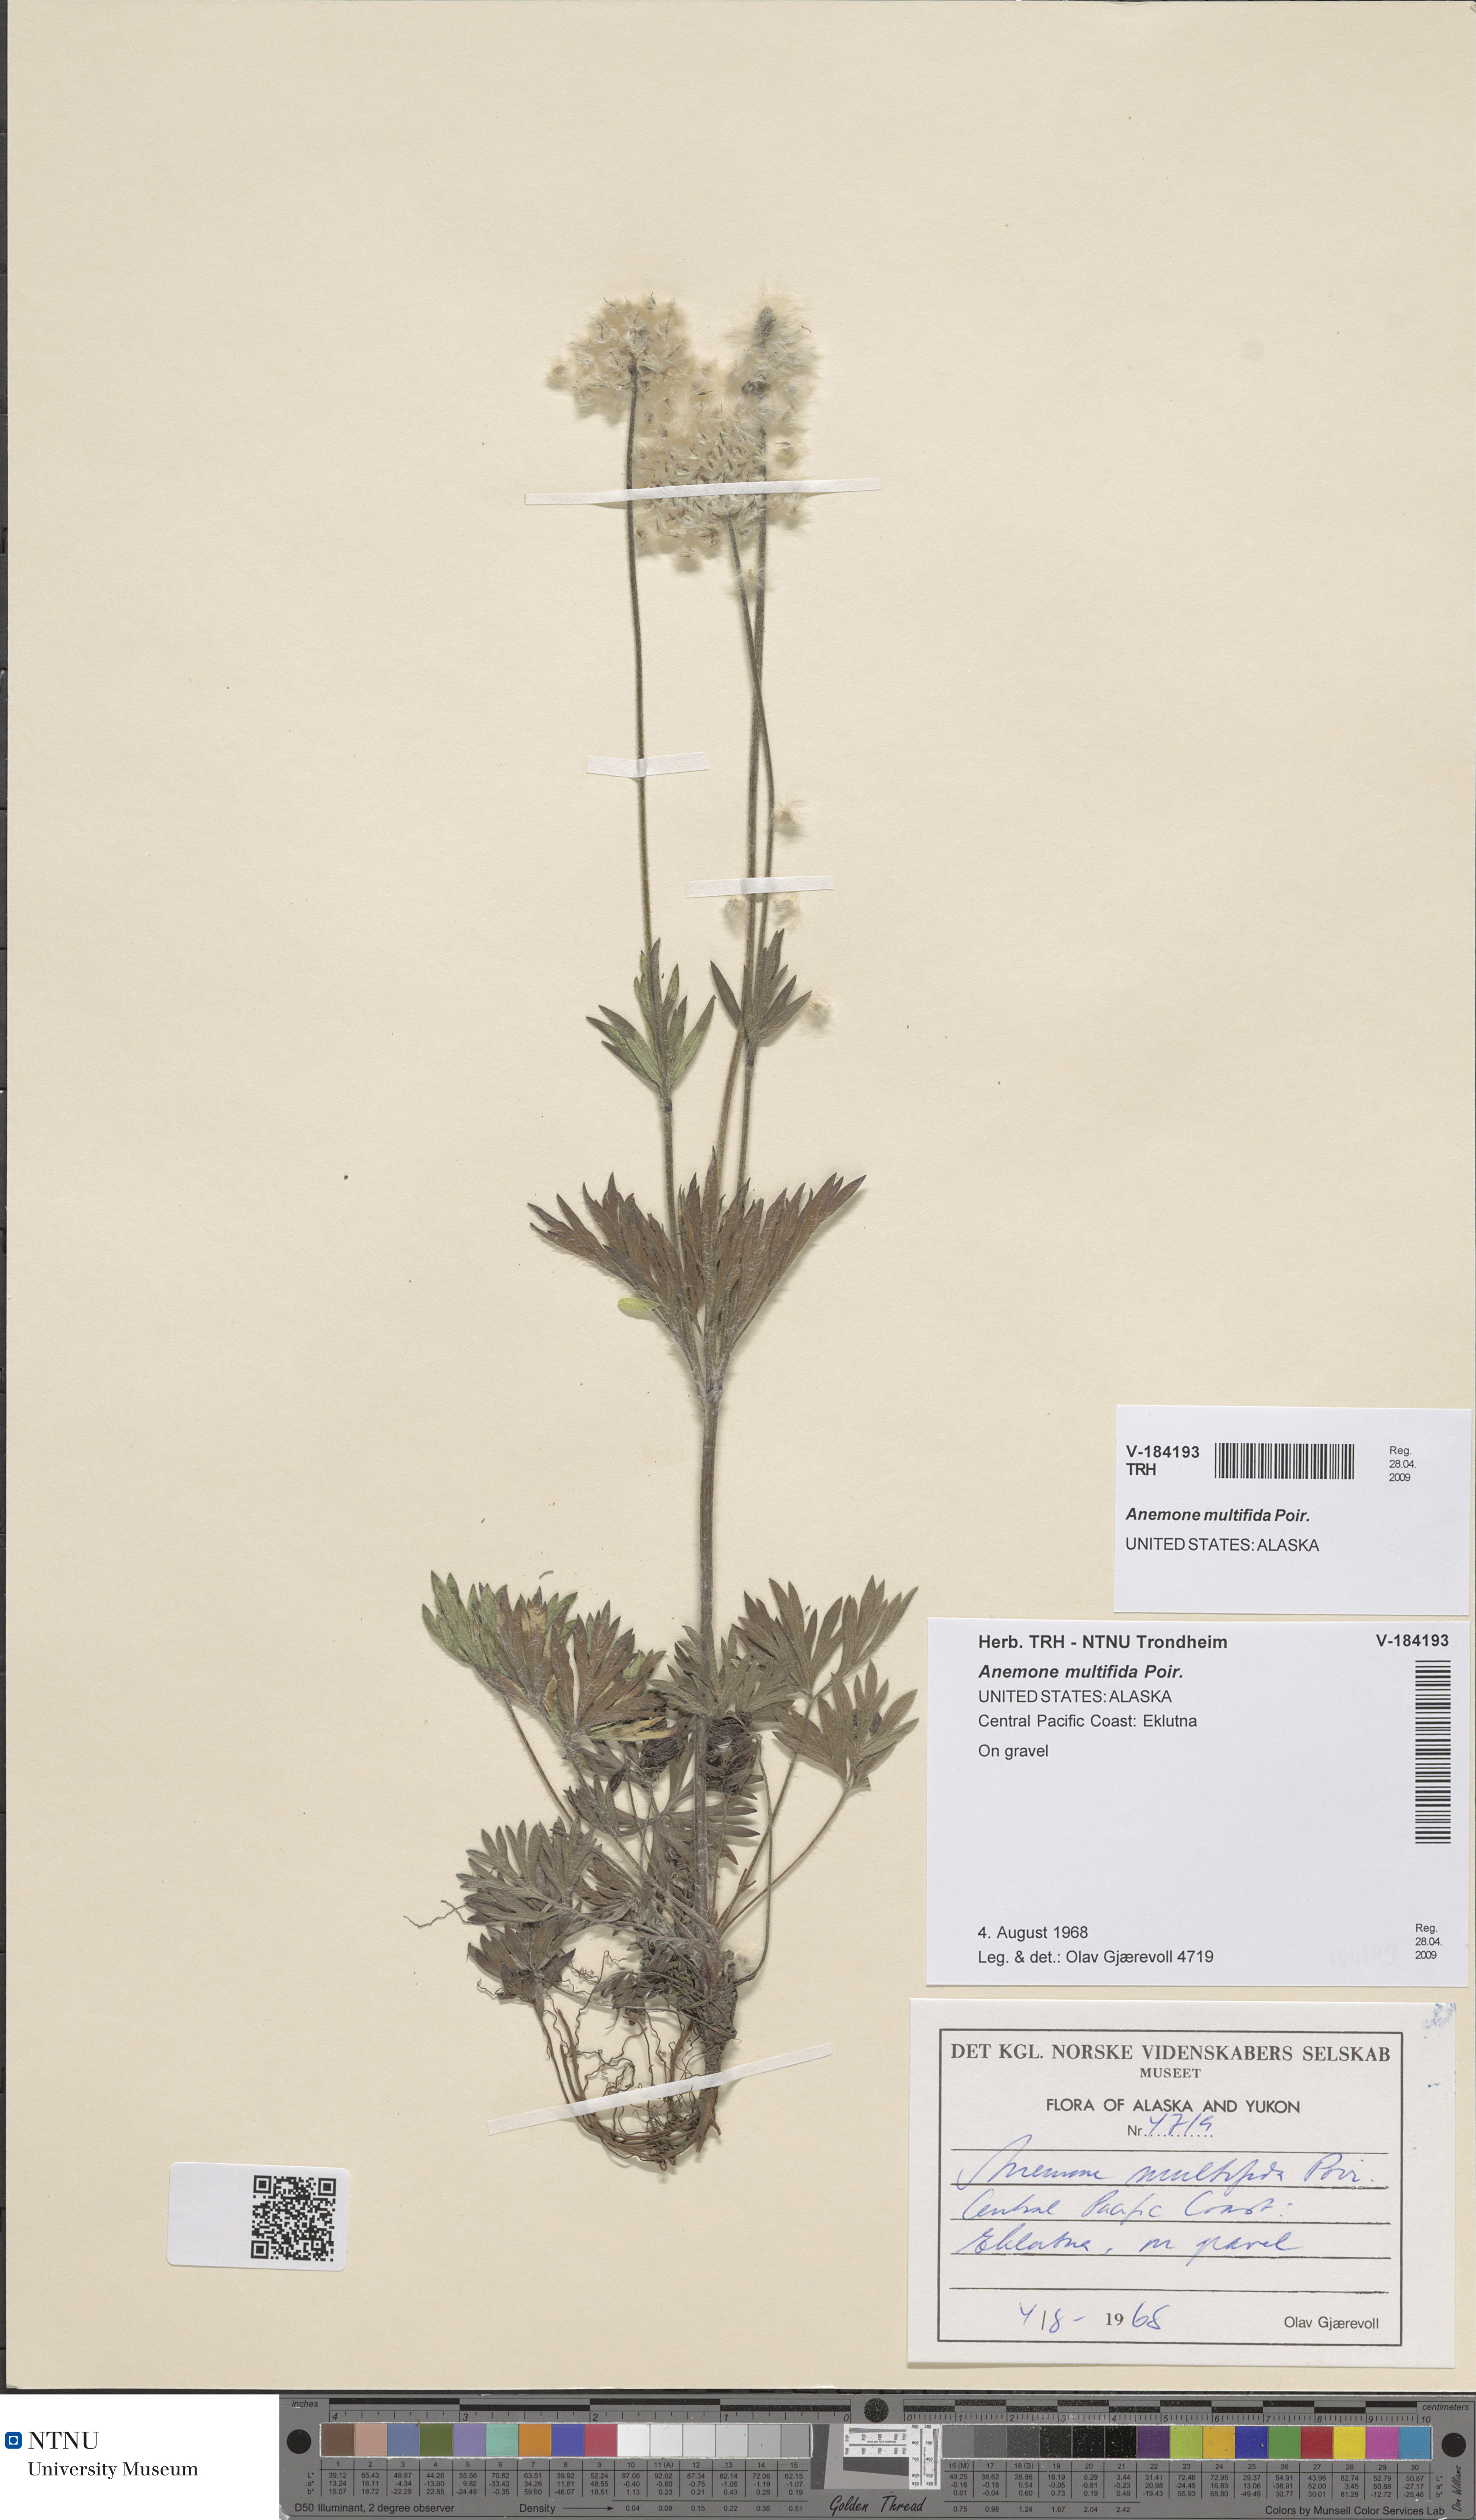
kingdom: Plantae
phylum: Tracheophyta
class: Magnoliopsida
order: Ranunculales
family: Ranunculaceae
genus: Anemone
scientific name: Anemone multifida
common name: Bird's-foot anemone
